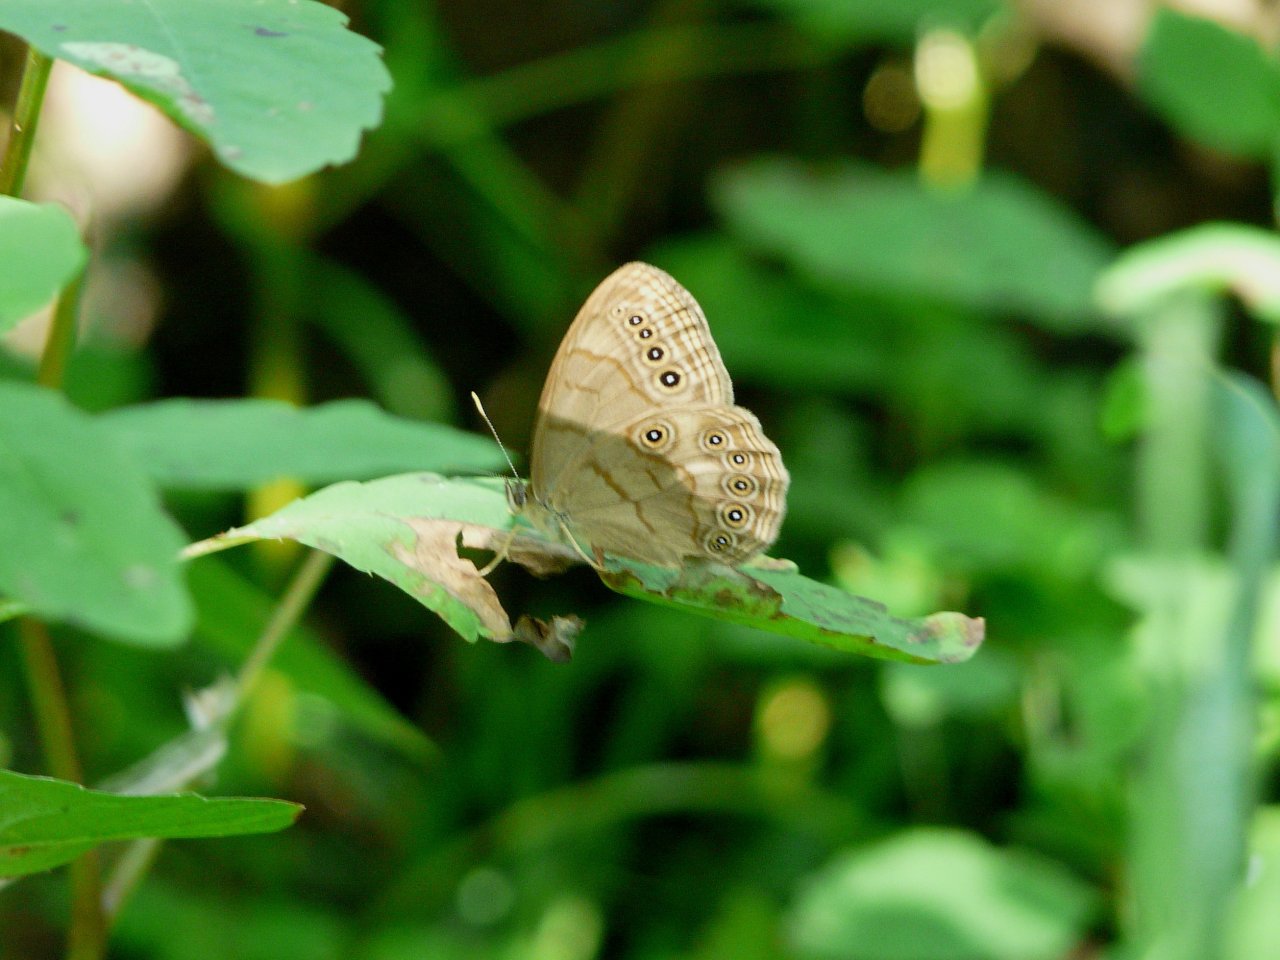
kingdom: Animalia
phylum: Arthropoda
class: Insecta
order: Lepidoptera
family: Nymphalidae
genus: Lethe
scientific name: Lethe eurydice
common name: Appalachian Eyed Brown
